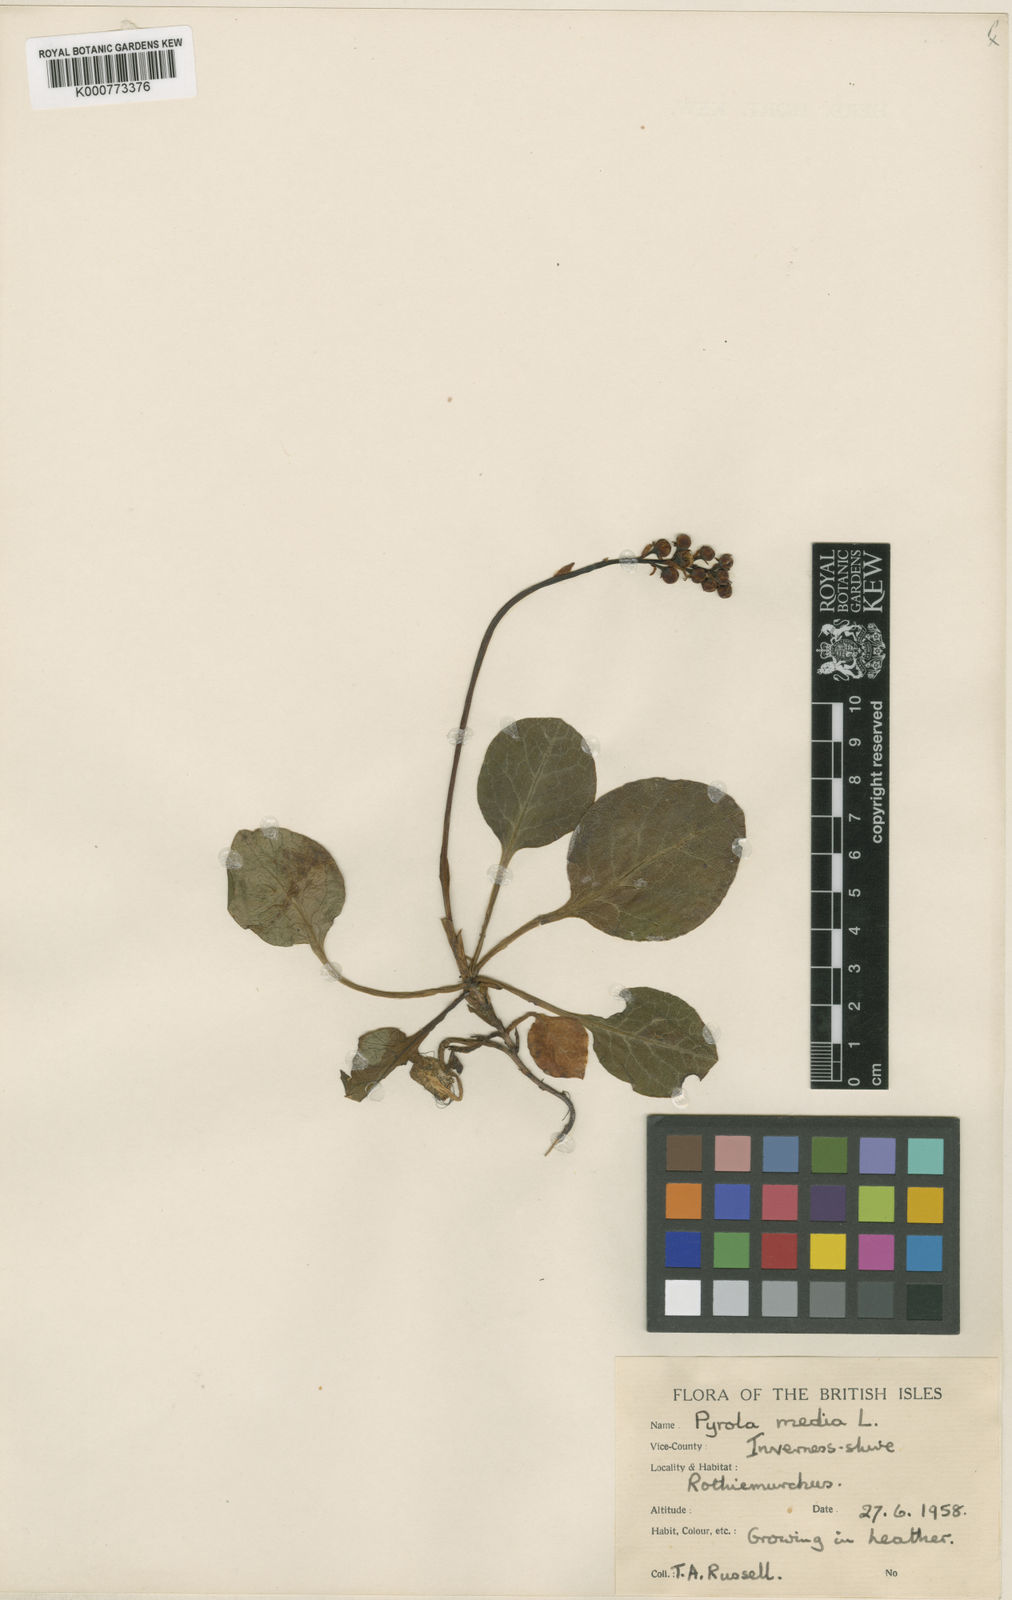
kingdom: Plantae
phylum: Tracheophyta
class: Magnoliopsida
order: Ericales
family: Ericaceae
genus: Pyrola
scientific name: Pyrola media
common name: Intermediate wintergreen
